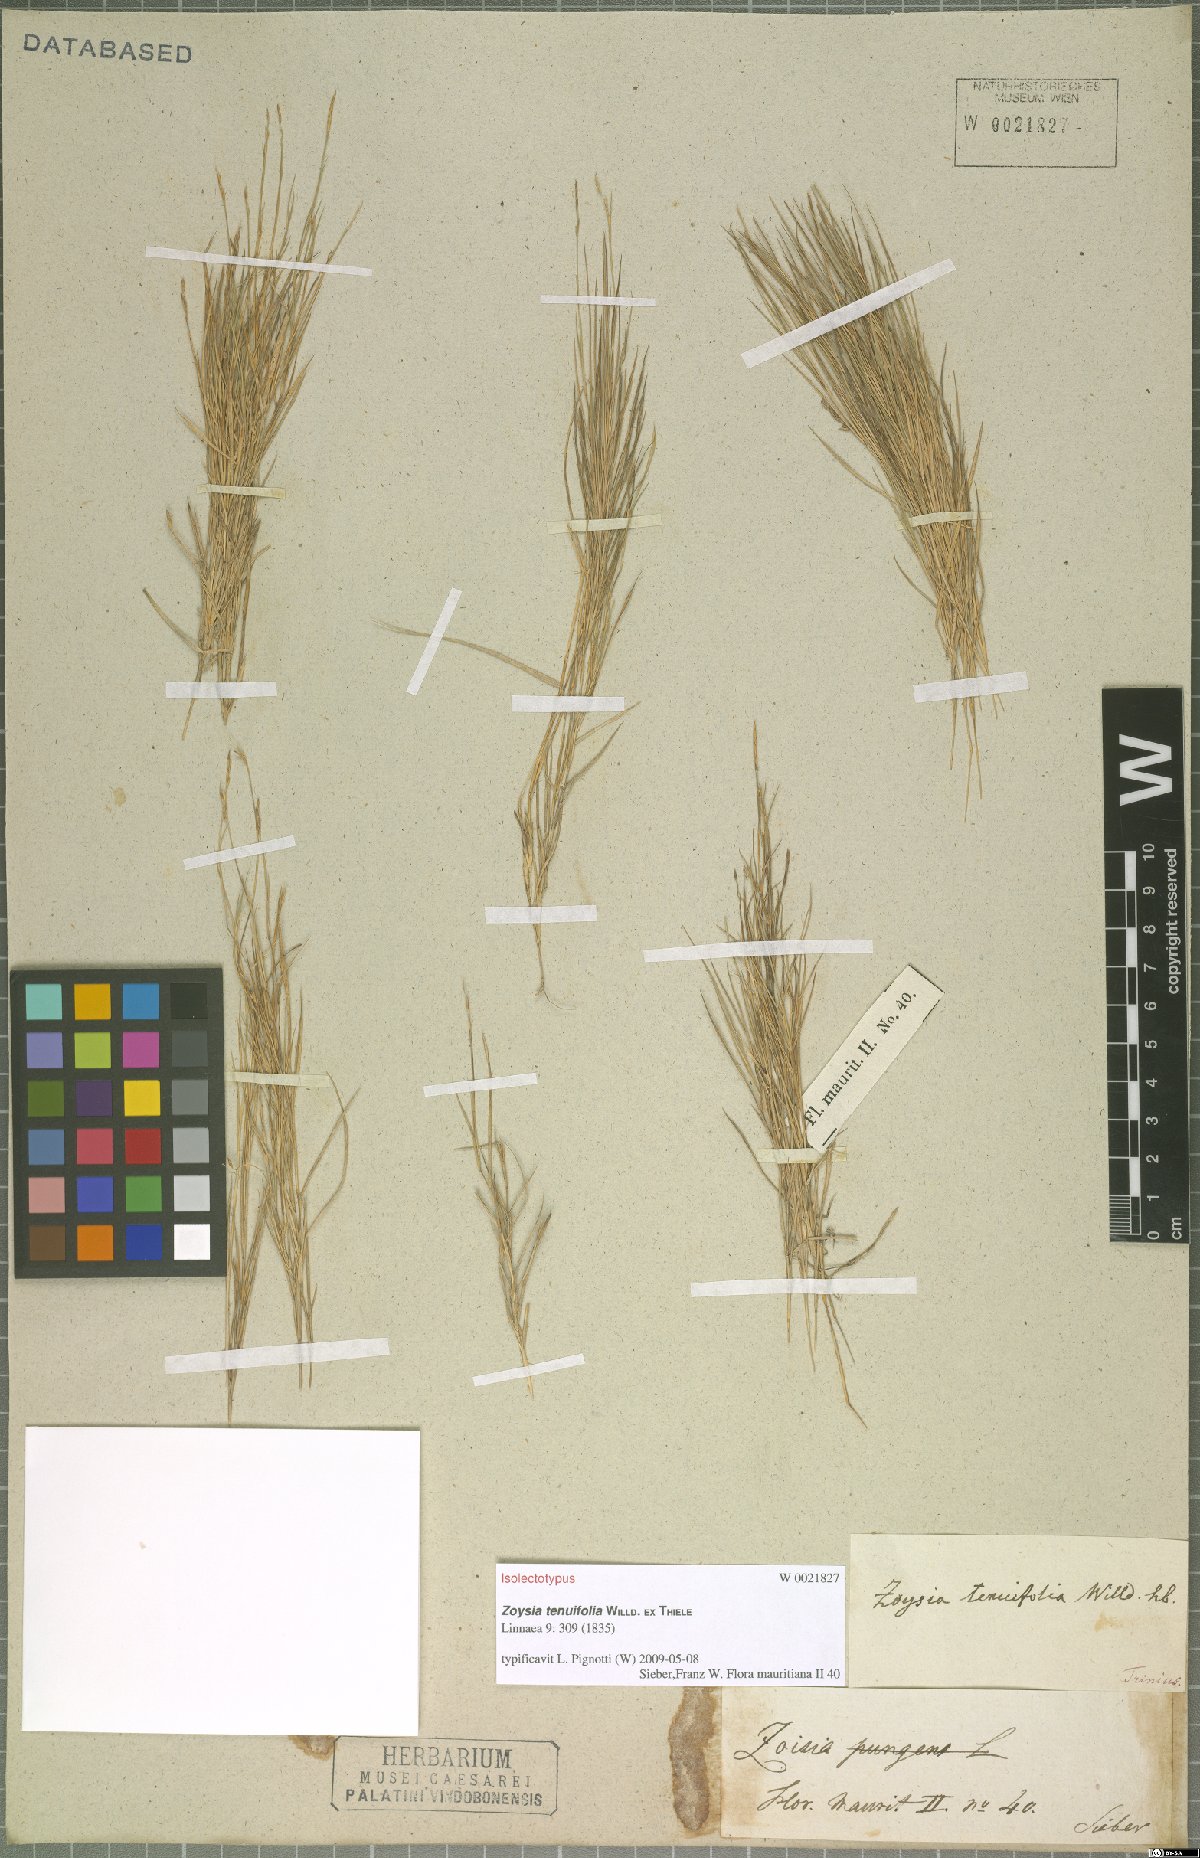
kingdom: Plantae
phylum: Tracheophyta
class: Liliopsida
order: Poales
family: Poaceae
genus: Zoysia
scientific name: Zoysia matrella
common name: Manila grass
